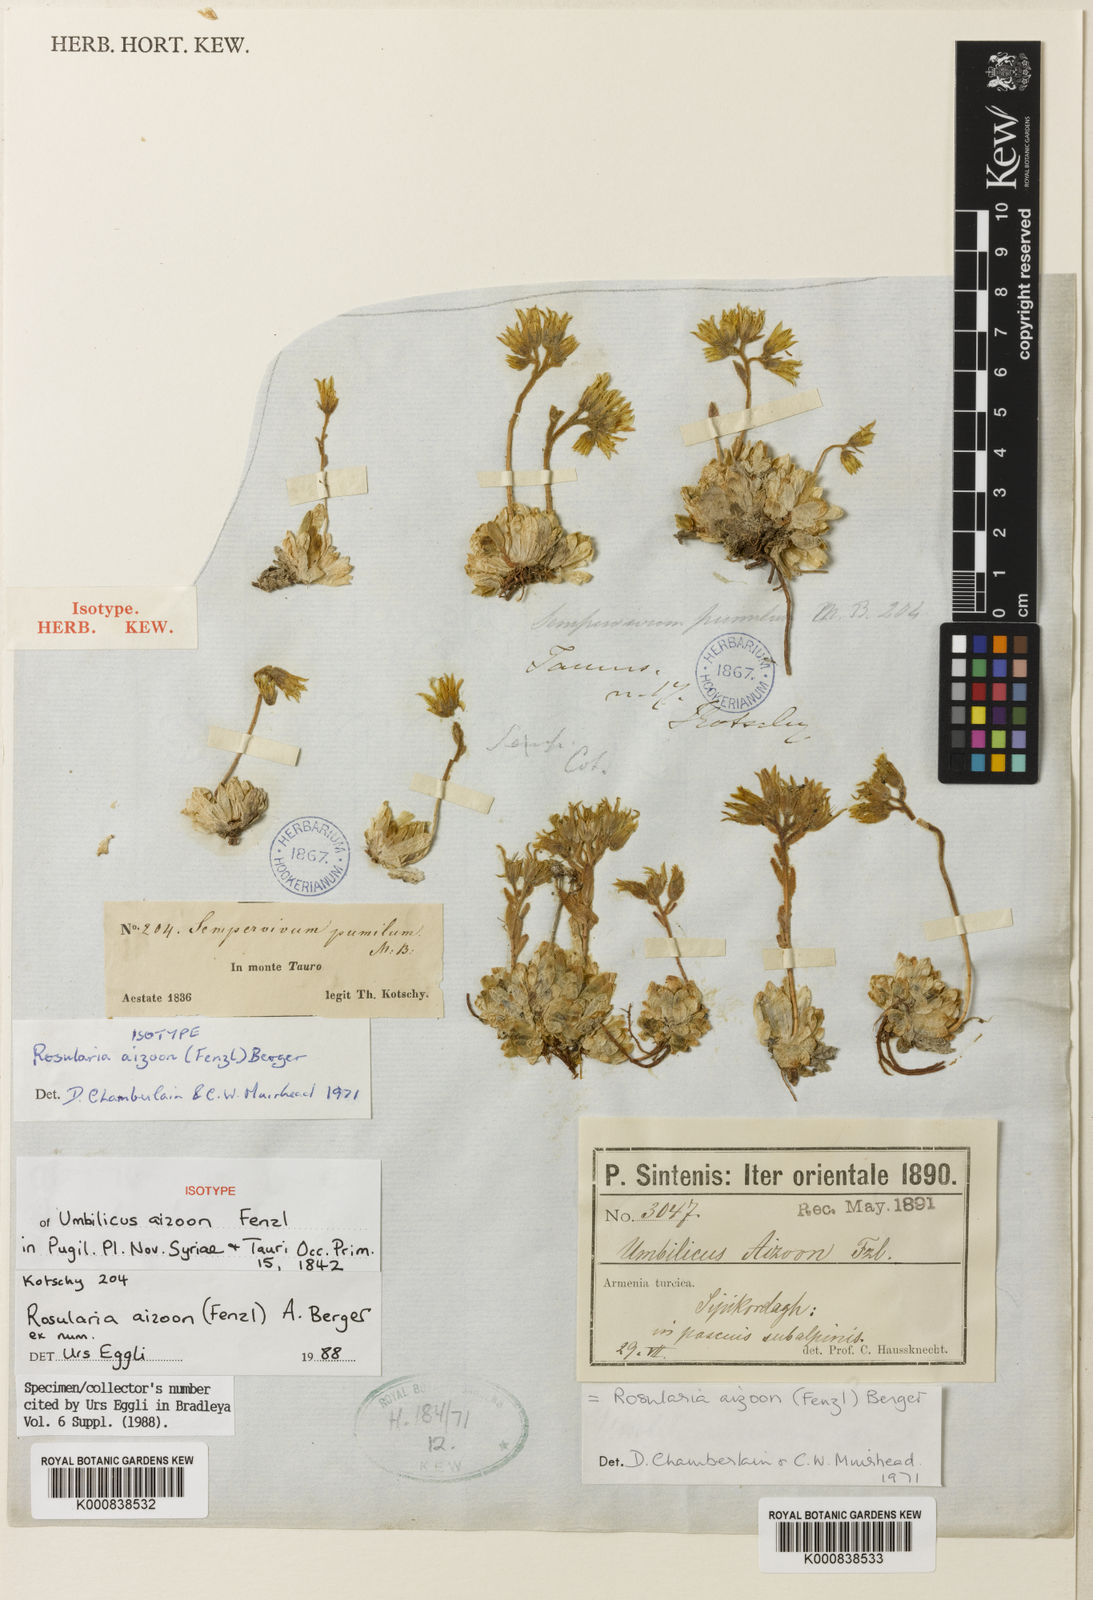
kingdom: Plantae
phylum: Tracheophyta
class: Magnoliopsida
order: Saxifragales
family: Crassulaceae
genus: Prometheum
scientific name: Prometheum aizoon
